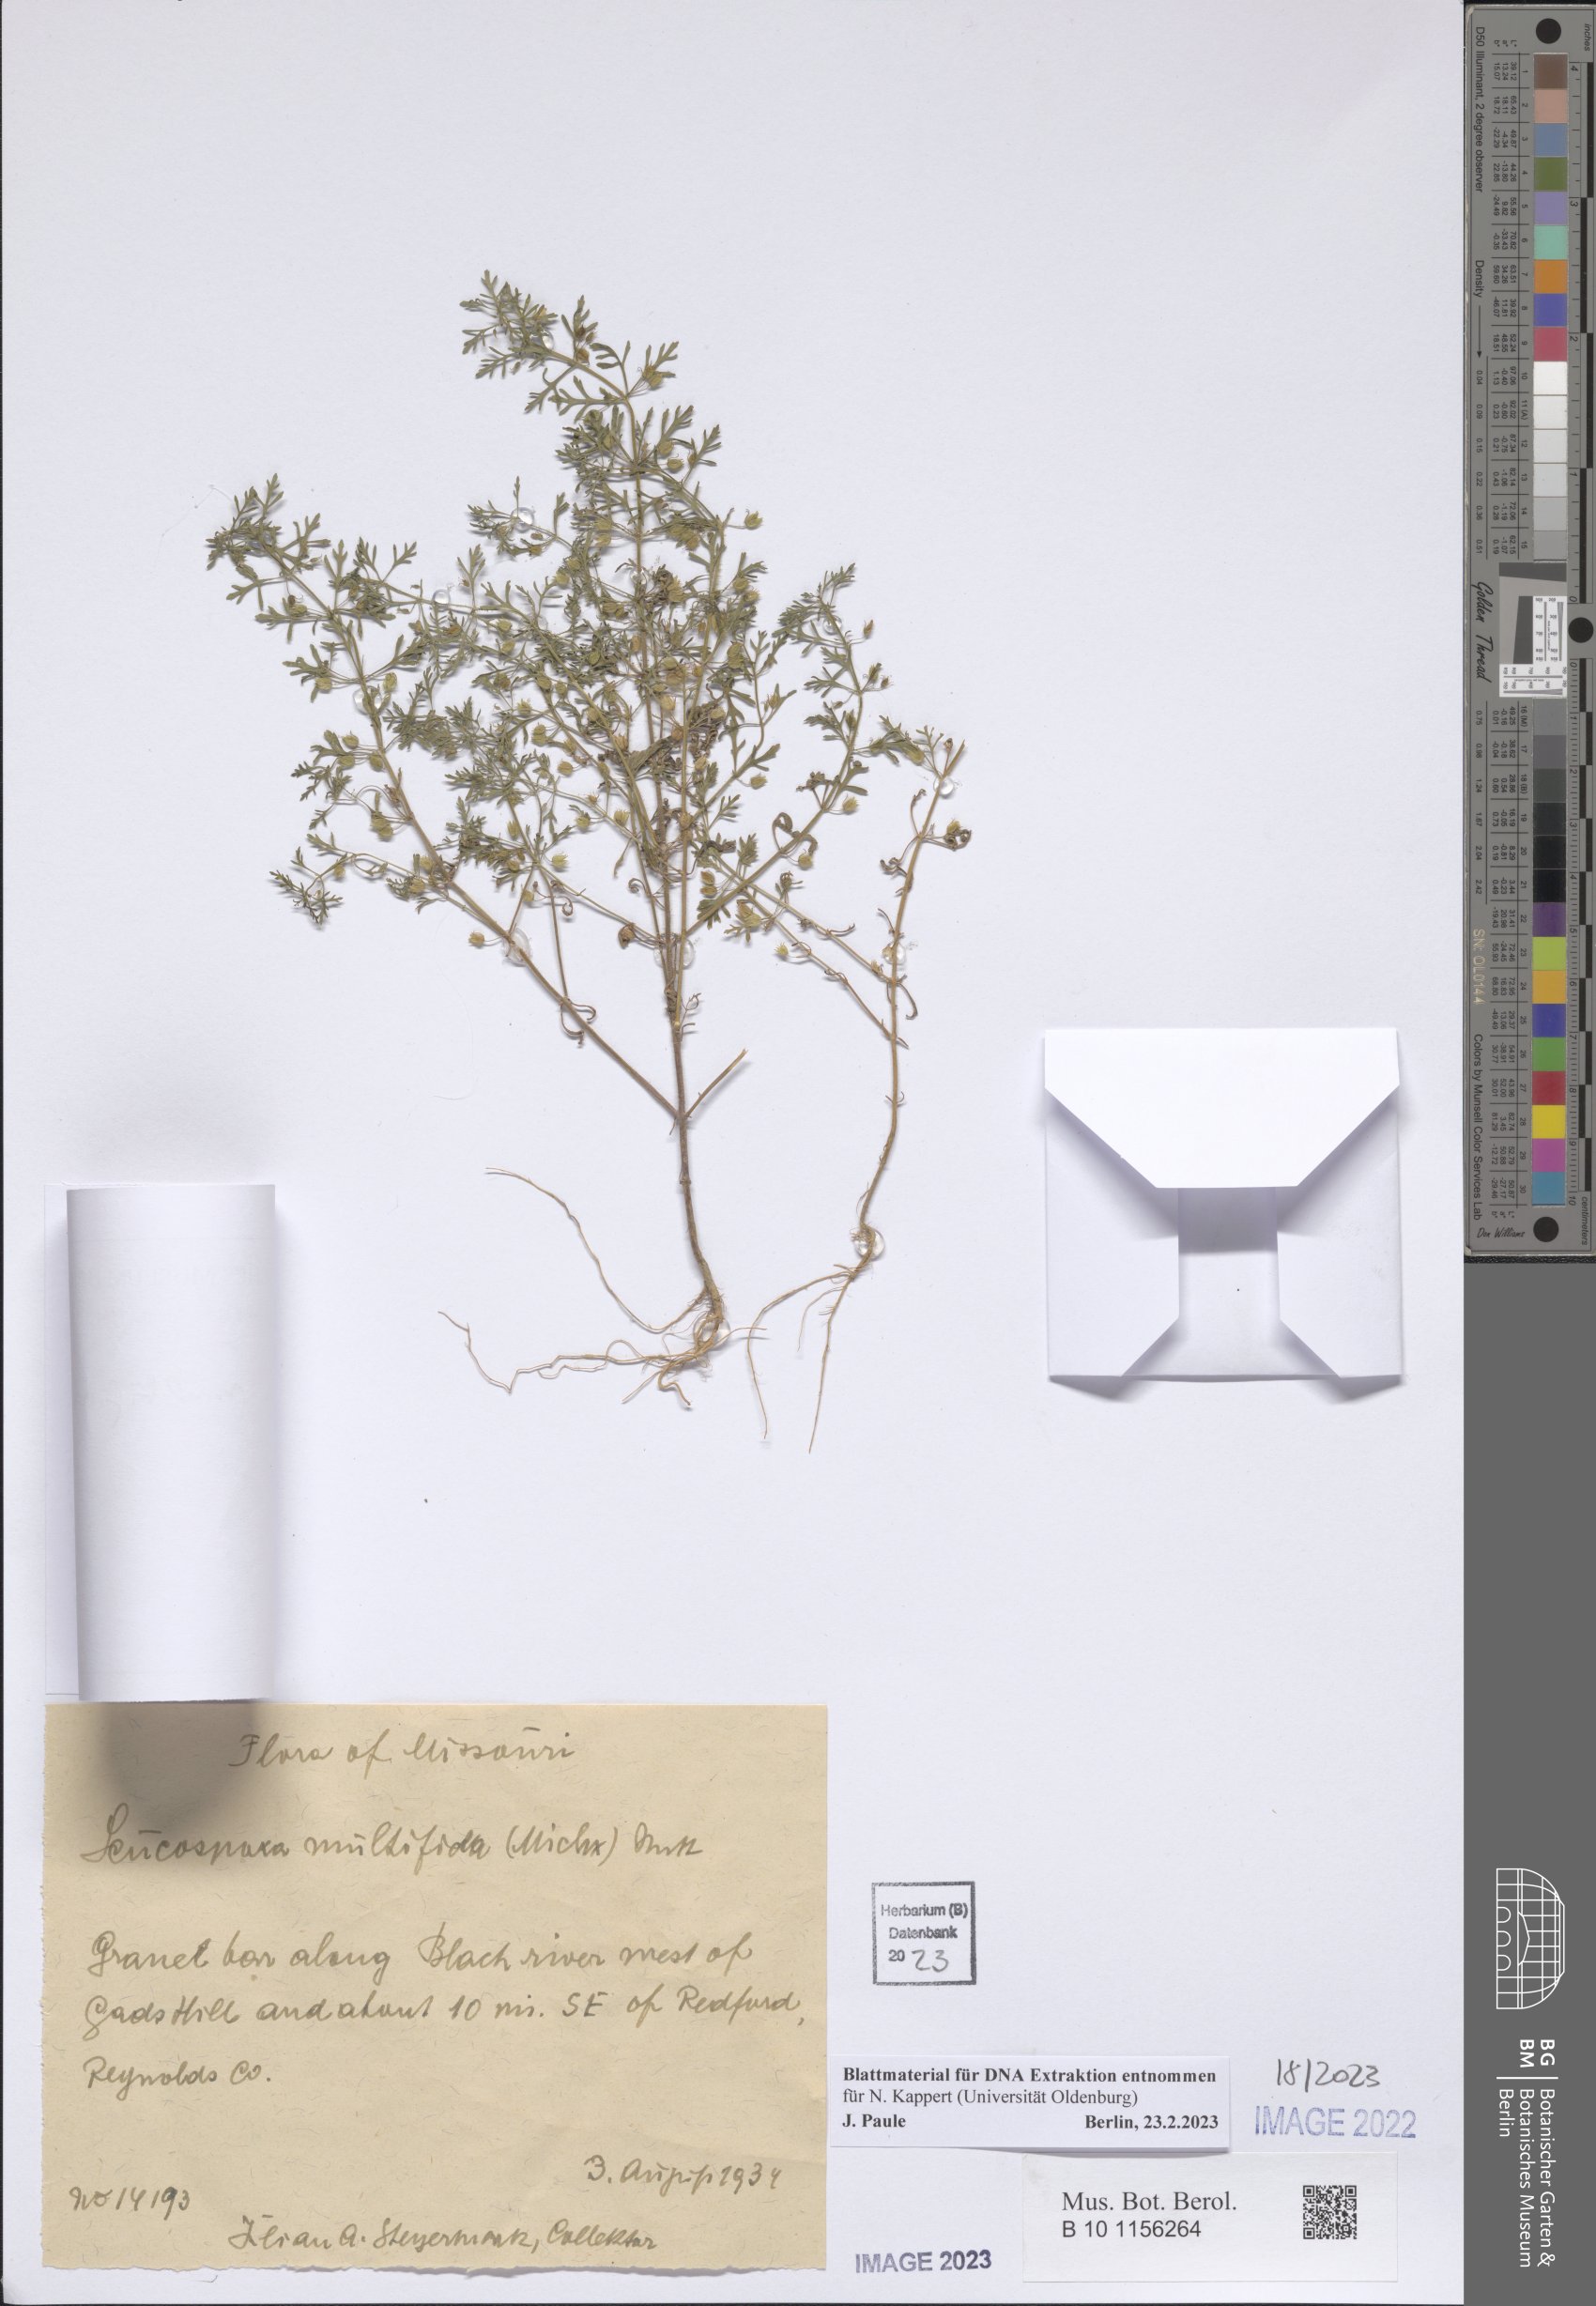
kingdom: Plantae
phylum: Tracheophyta
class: Magnoliopsida
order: Lamiales
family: Plantaginaceae
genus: Leucospora
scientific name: Leucospora multifida
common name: Narrow-leaf paleseed
